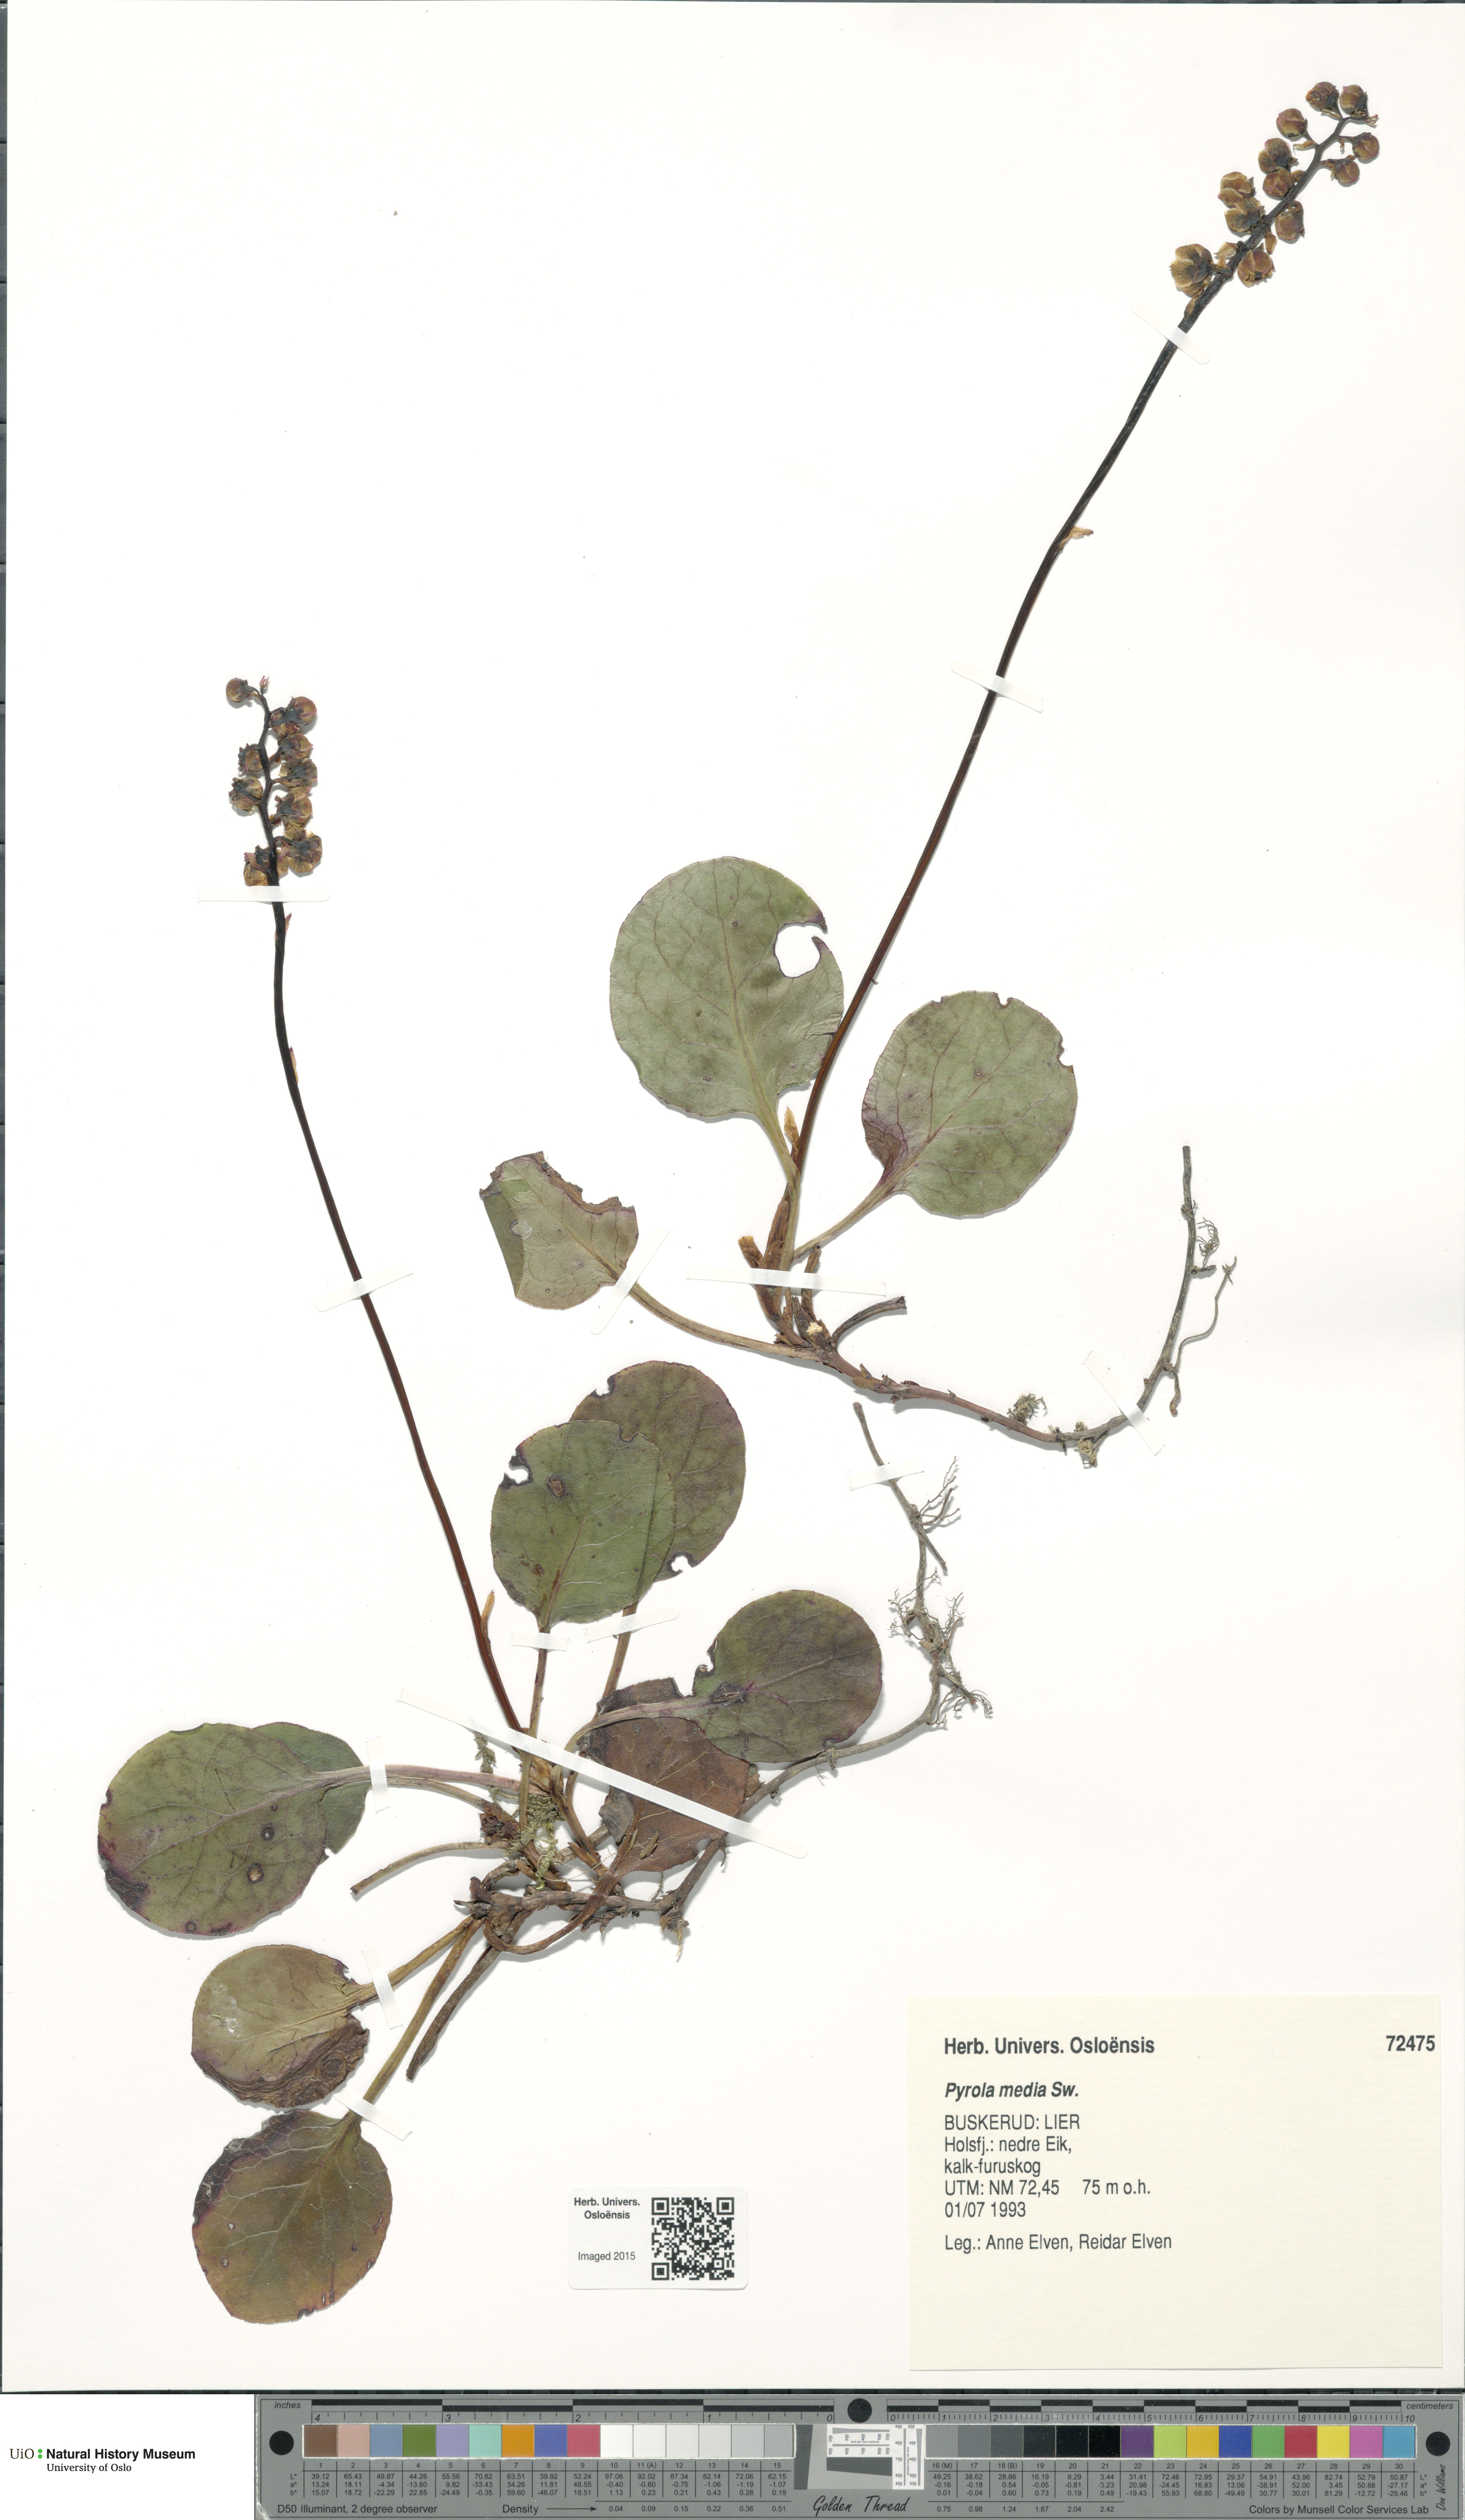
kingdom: Plantae
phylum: Tracheophyta
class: Magnoliopsida
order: Ericales
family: Ericaceae
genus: Pyrola
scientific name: Pyrola media
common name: Intermediate wintergreen
